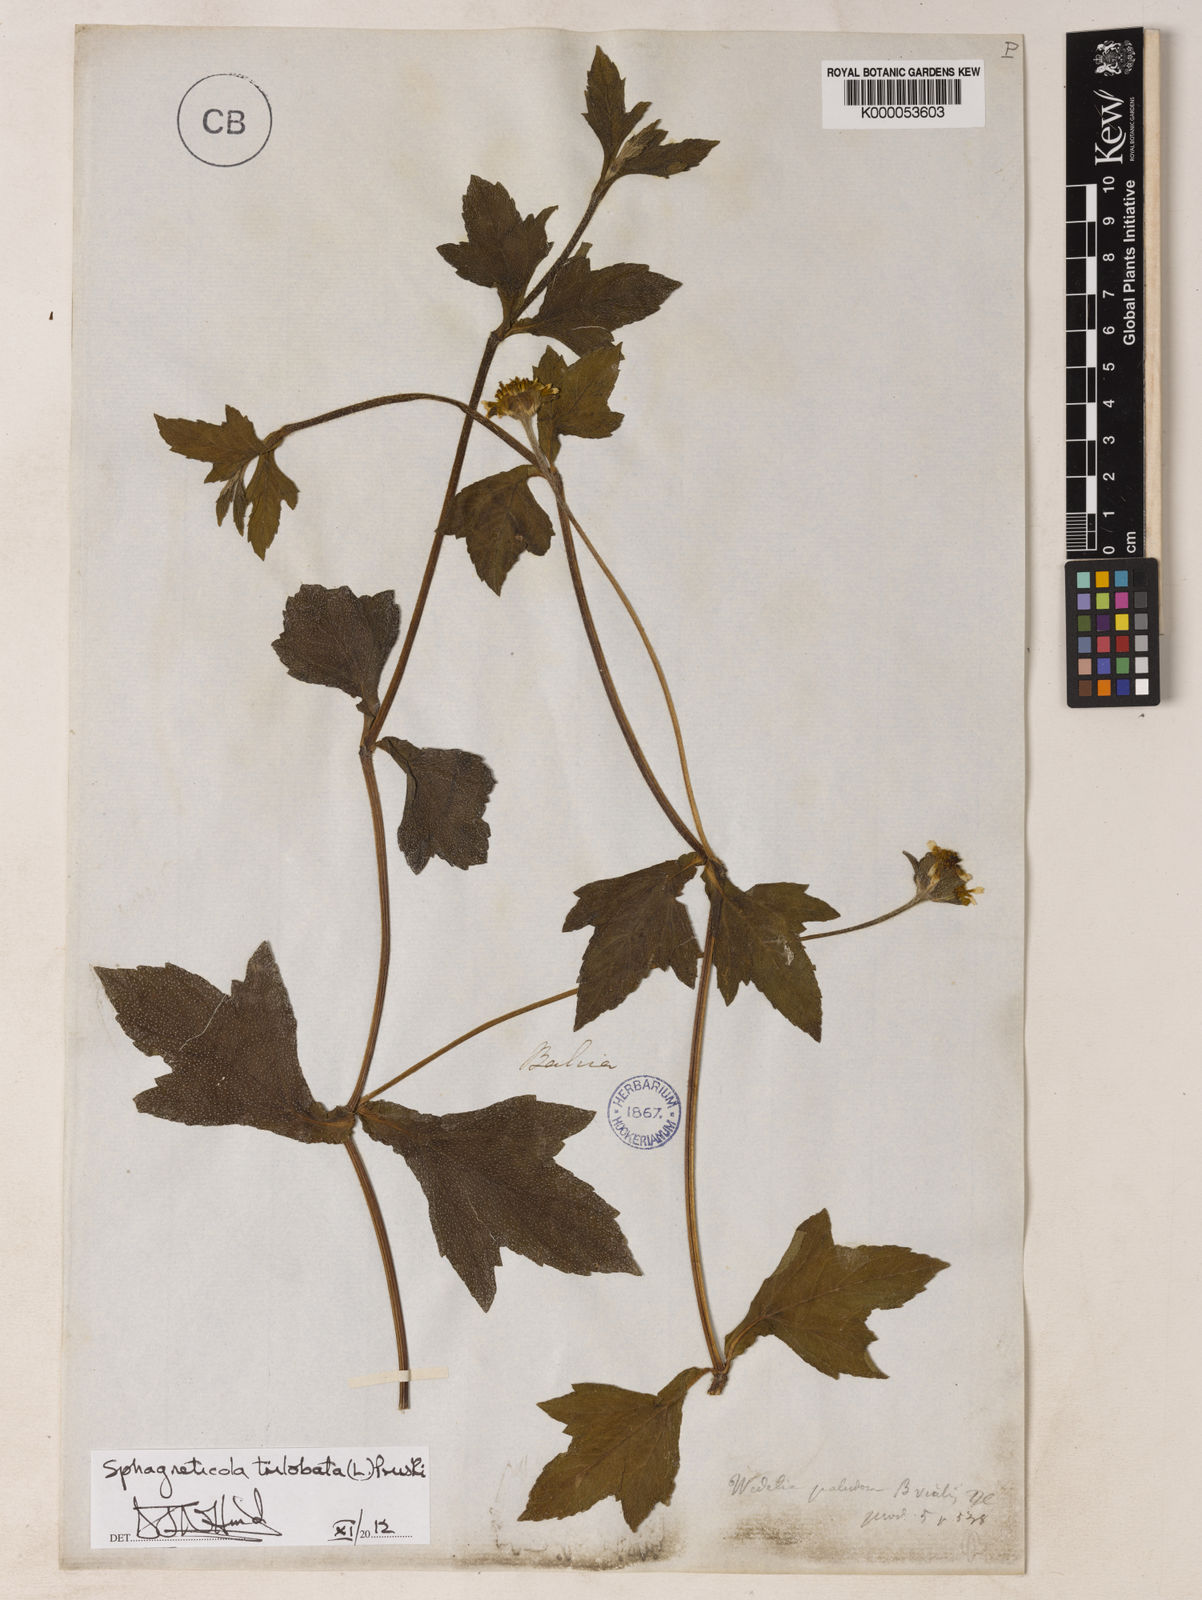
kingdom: Plantae
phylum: Tracheophyta
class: Magnoliopsida
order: Asterales
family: Asteraceae
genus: Sphagneticola
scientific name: Sphagneticola trilobata
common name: Bay biscayne creeping-oxeye
